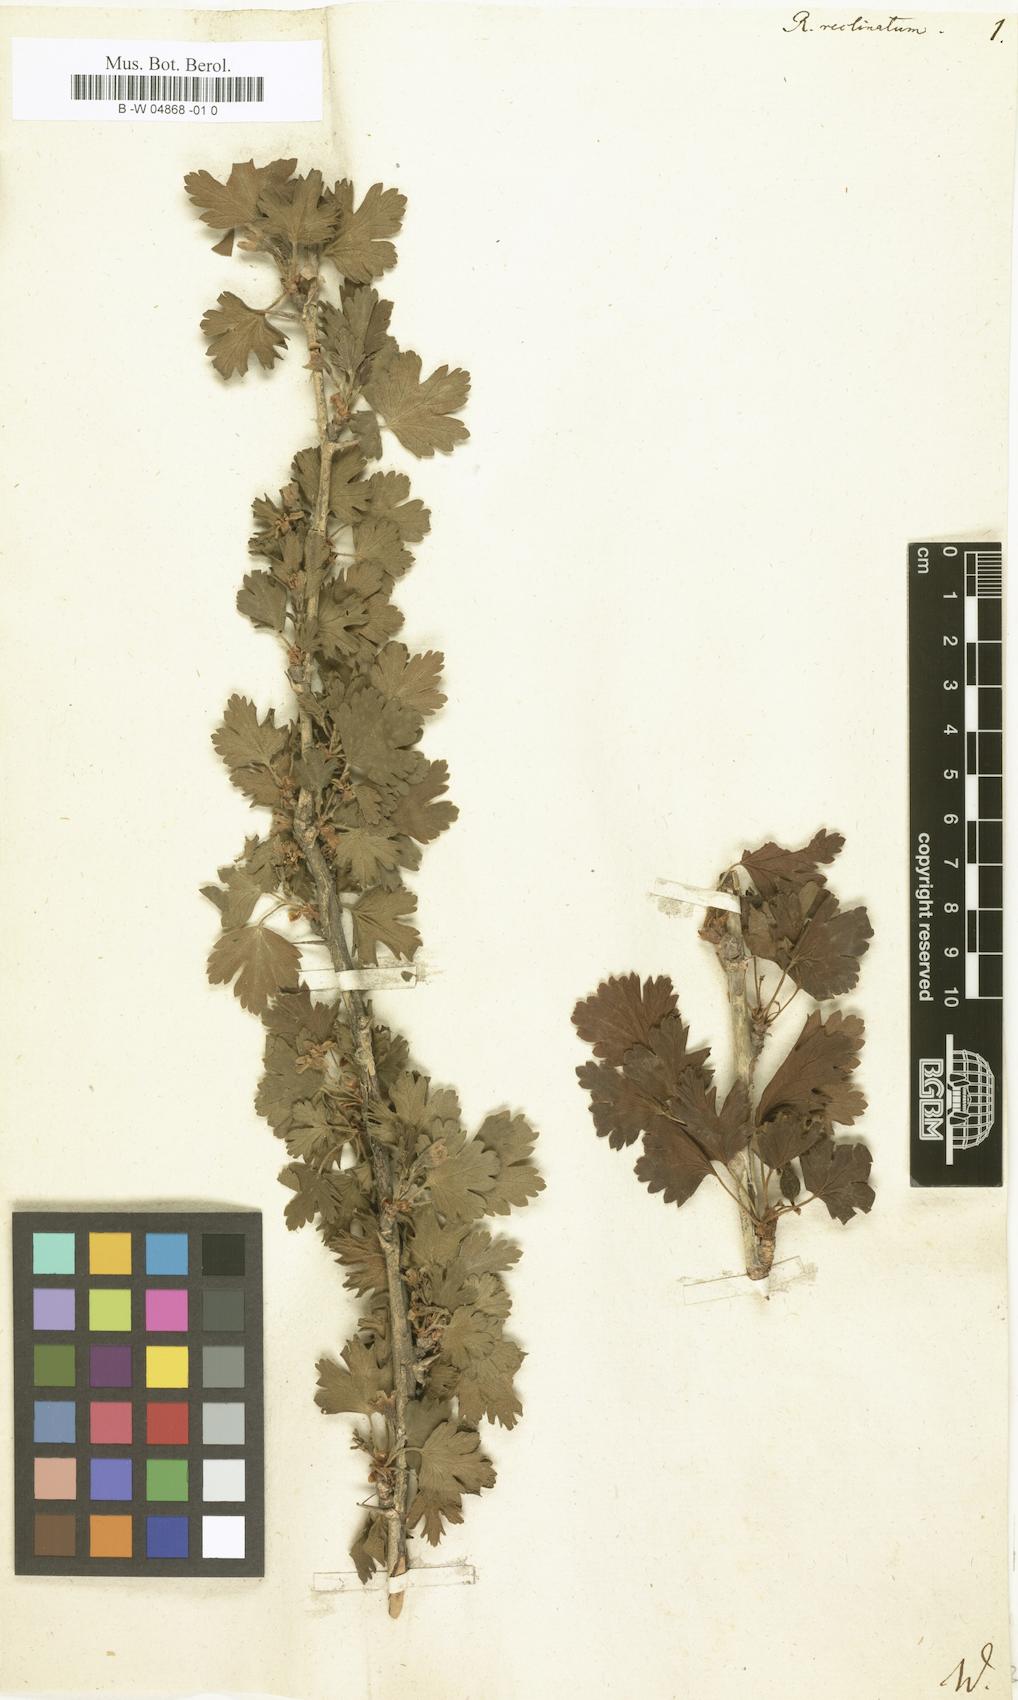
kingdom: Plantae
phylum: Tracheophyta
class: Magnoliopsida
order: Saxifragales
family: Grossulariaceae
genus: Ribes
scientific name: Ribes
